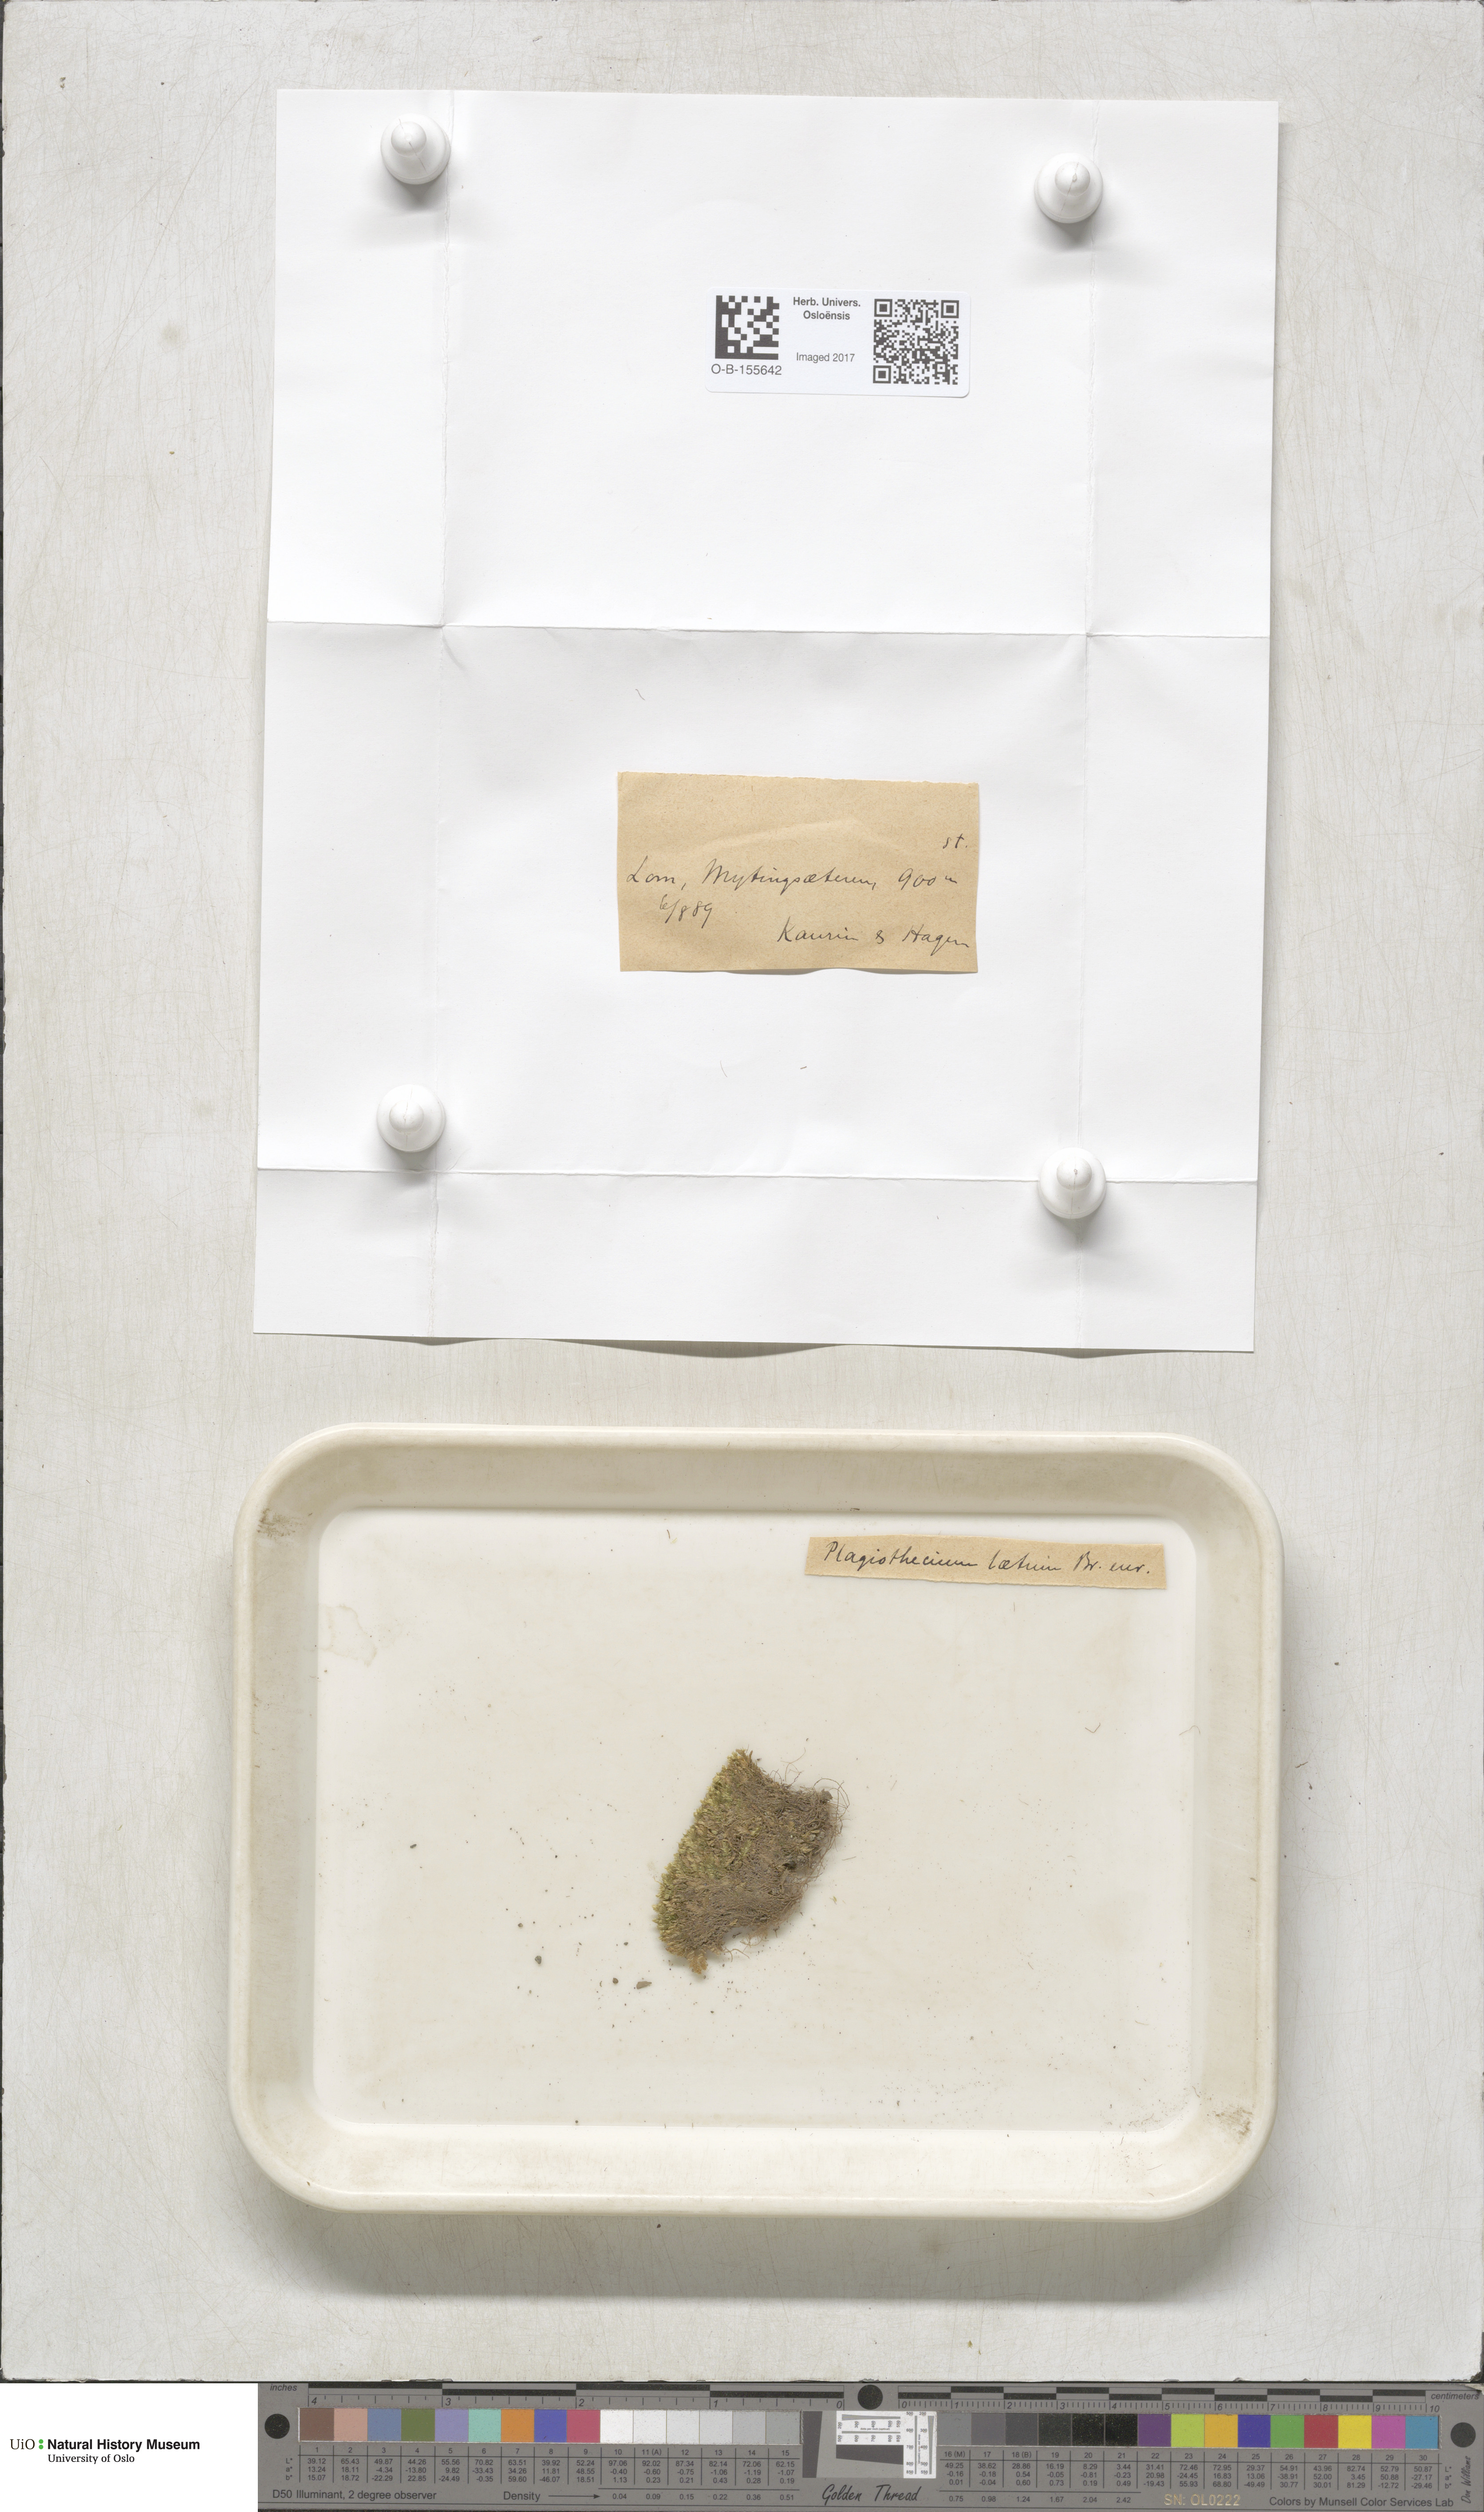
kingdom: Plantae
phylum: Bryophyta
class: Bryopsida
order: Hypnales
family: Plagiotheciaceae
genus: Plagiothecium
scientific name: Plagiothecium laetum
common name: Bright silk moss
